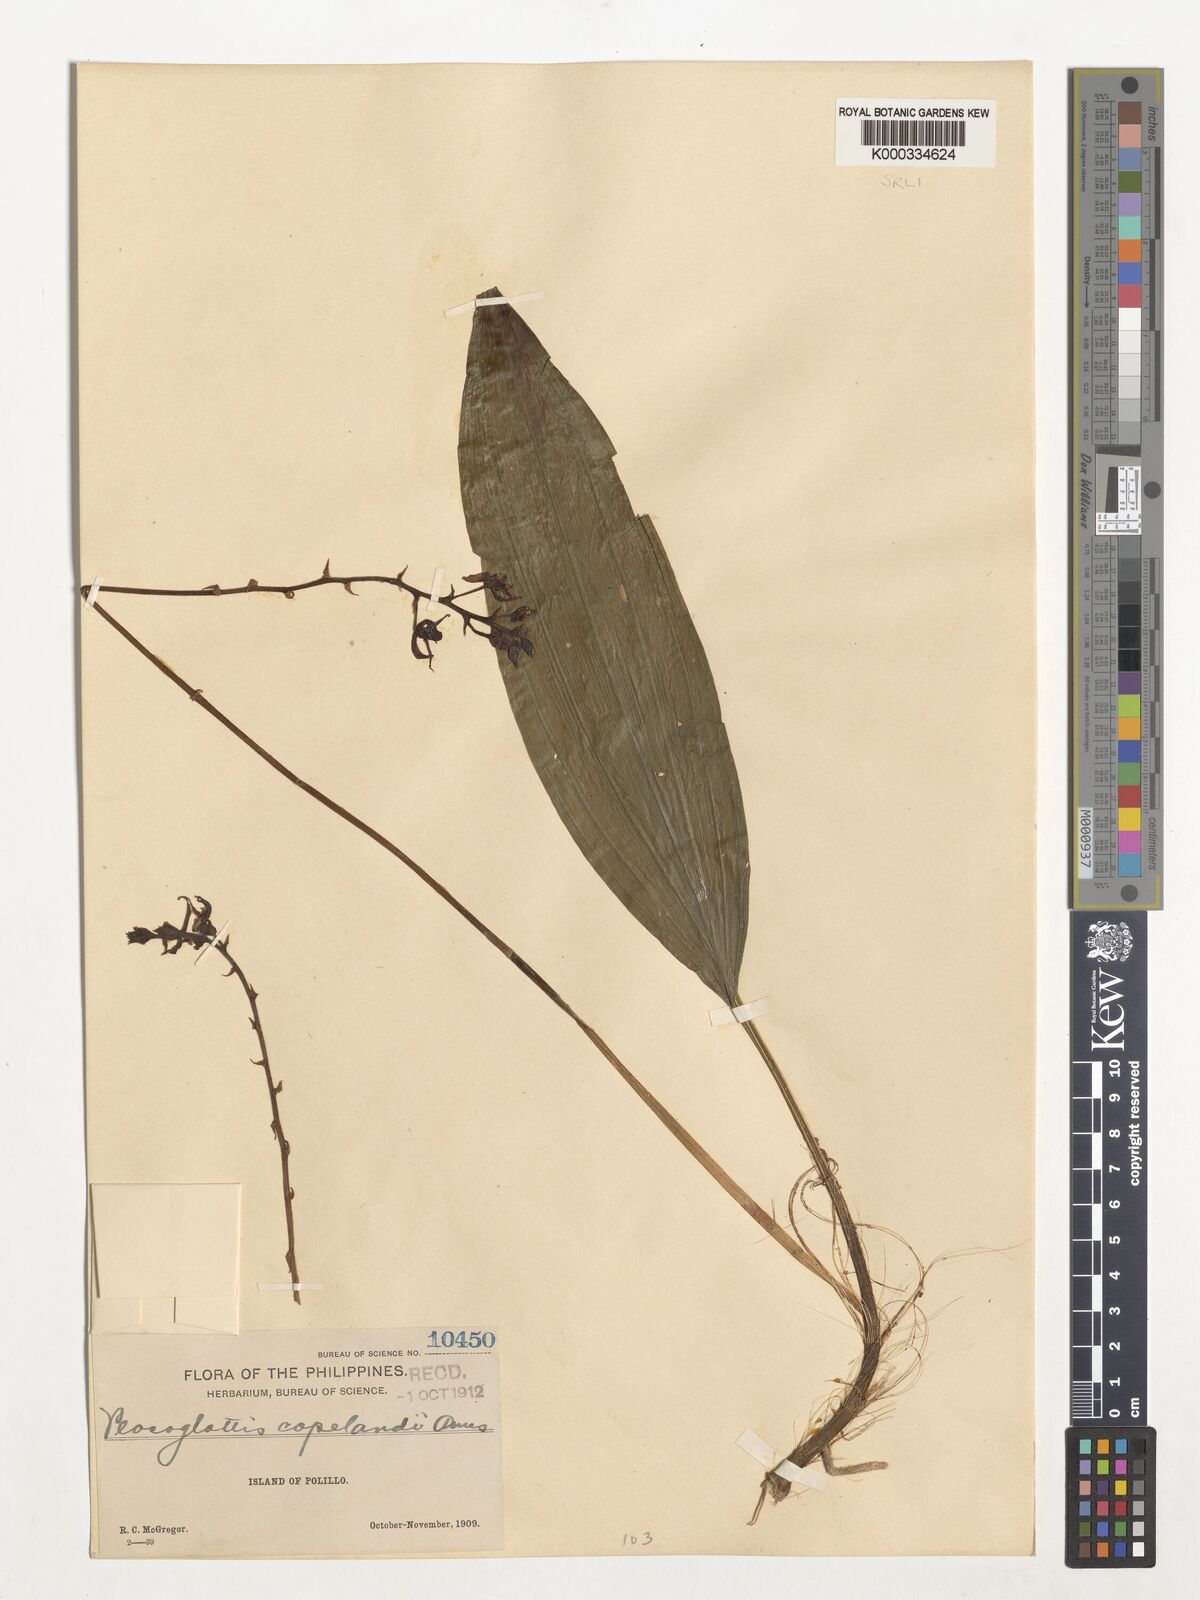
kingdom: Plantae
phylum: Tracheophyta
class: Liliopsida
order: Asparagales
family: Orchidaceae
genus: Plocoglottis
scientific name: Plocoglottis copelandii
